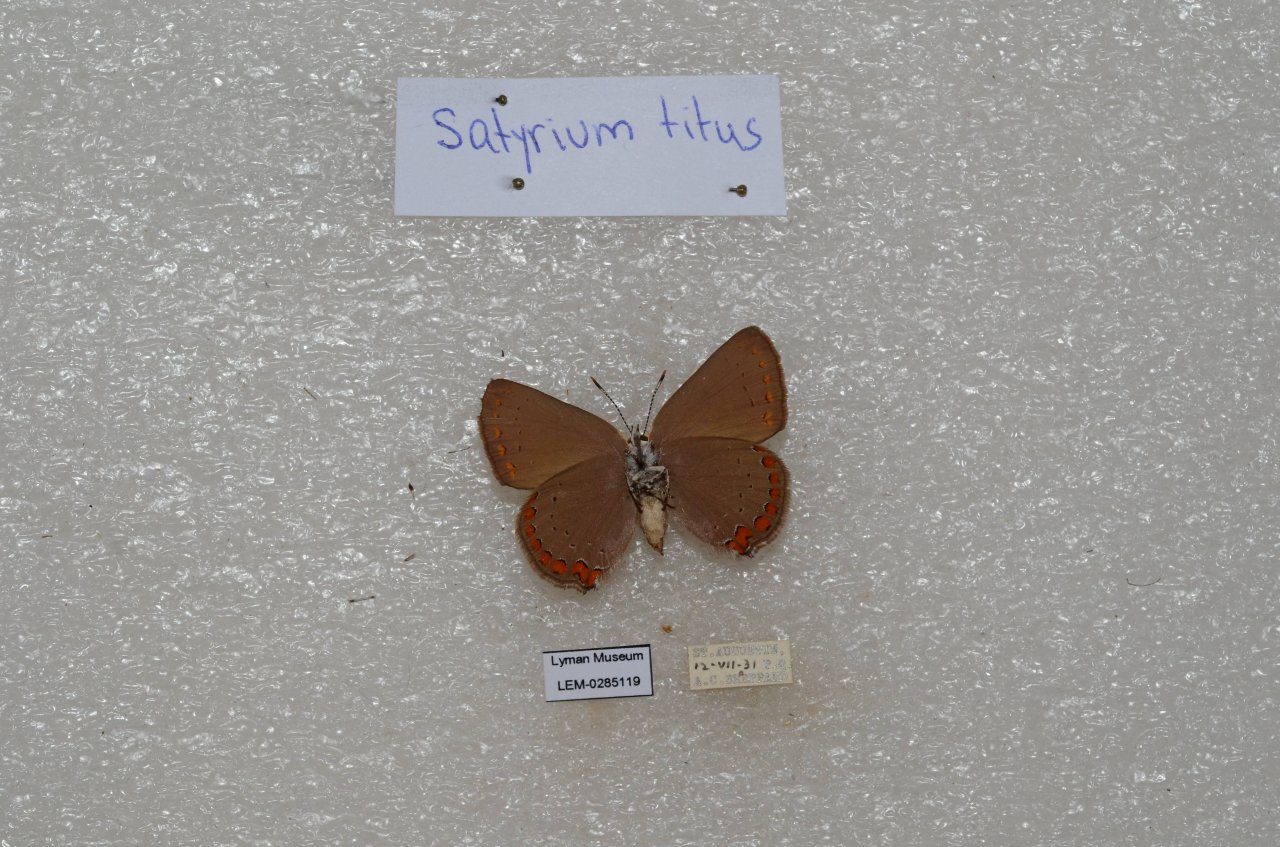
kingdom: Animalia
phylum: Arthropoda
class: Insecta
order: Lepidoptera
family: Lycaenidae
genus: Harkenclenus
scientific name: Harkenclenus titus
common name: Coral Hairstreak
